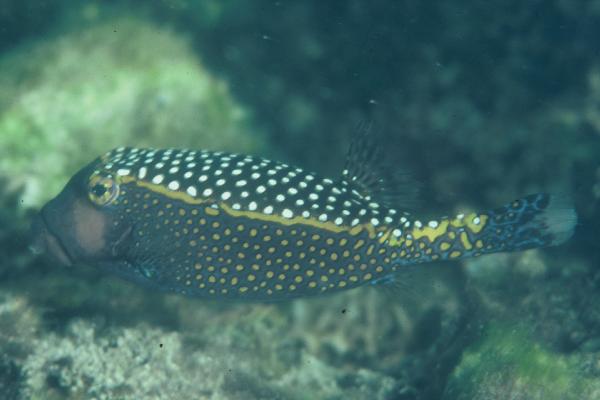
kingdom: Animalia
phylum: Chordata
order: Tetraodontiformes
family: Ostraciidae
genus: Ostracion
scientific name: Ostracion meleagris
